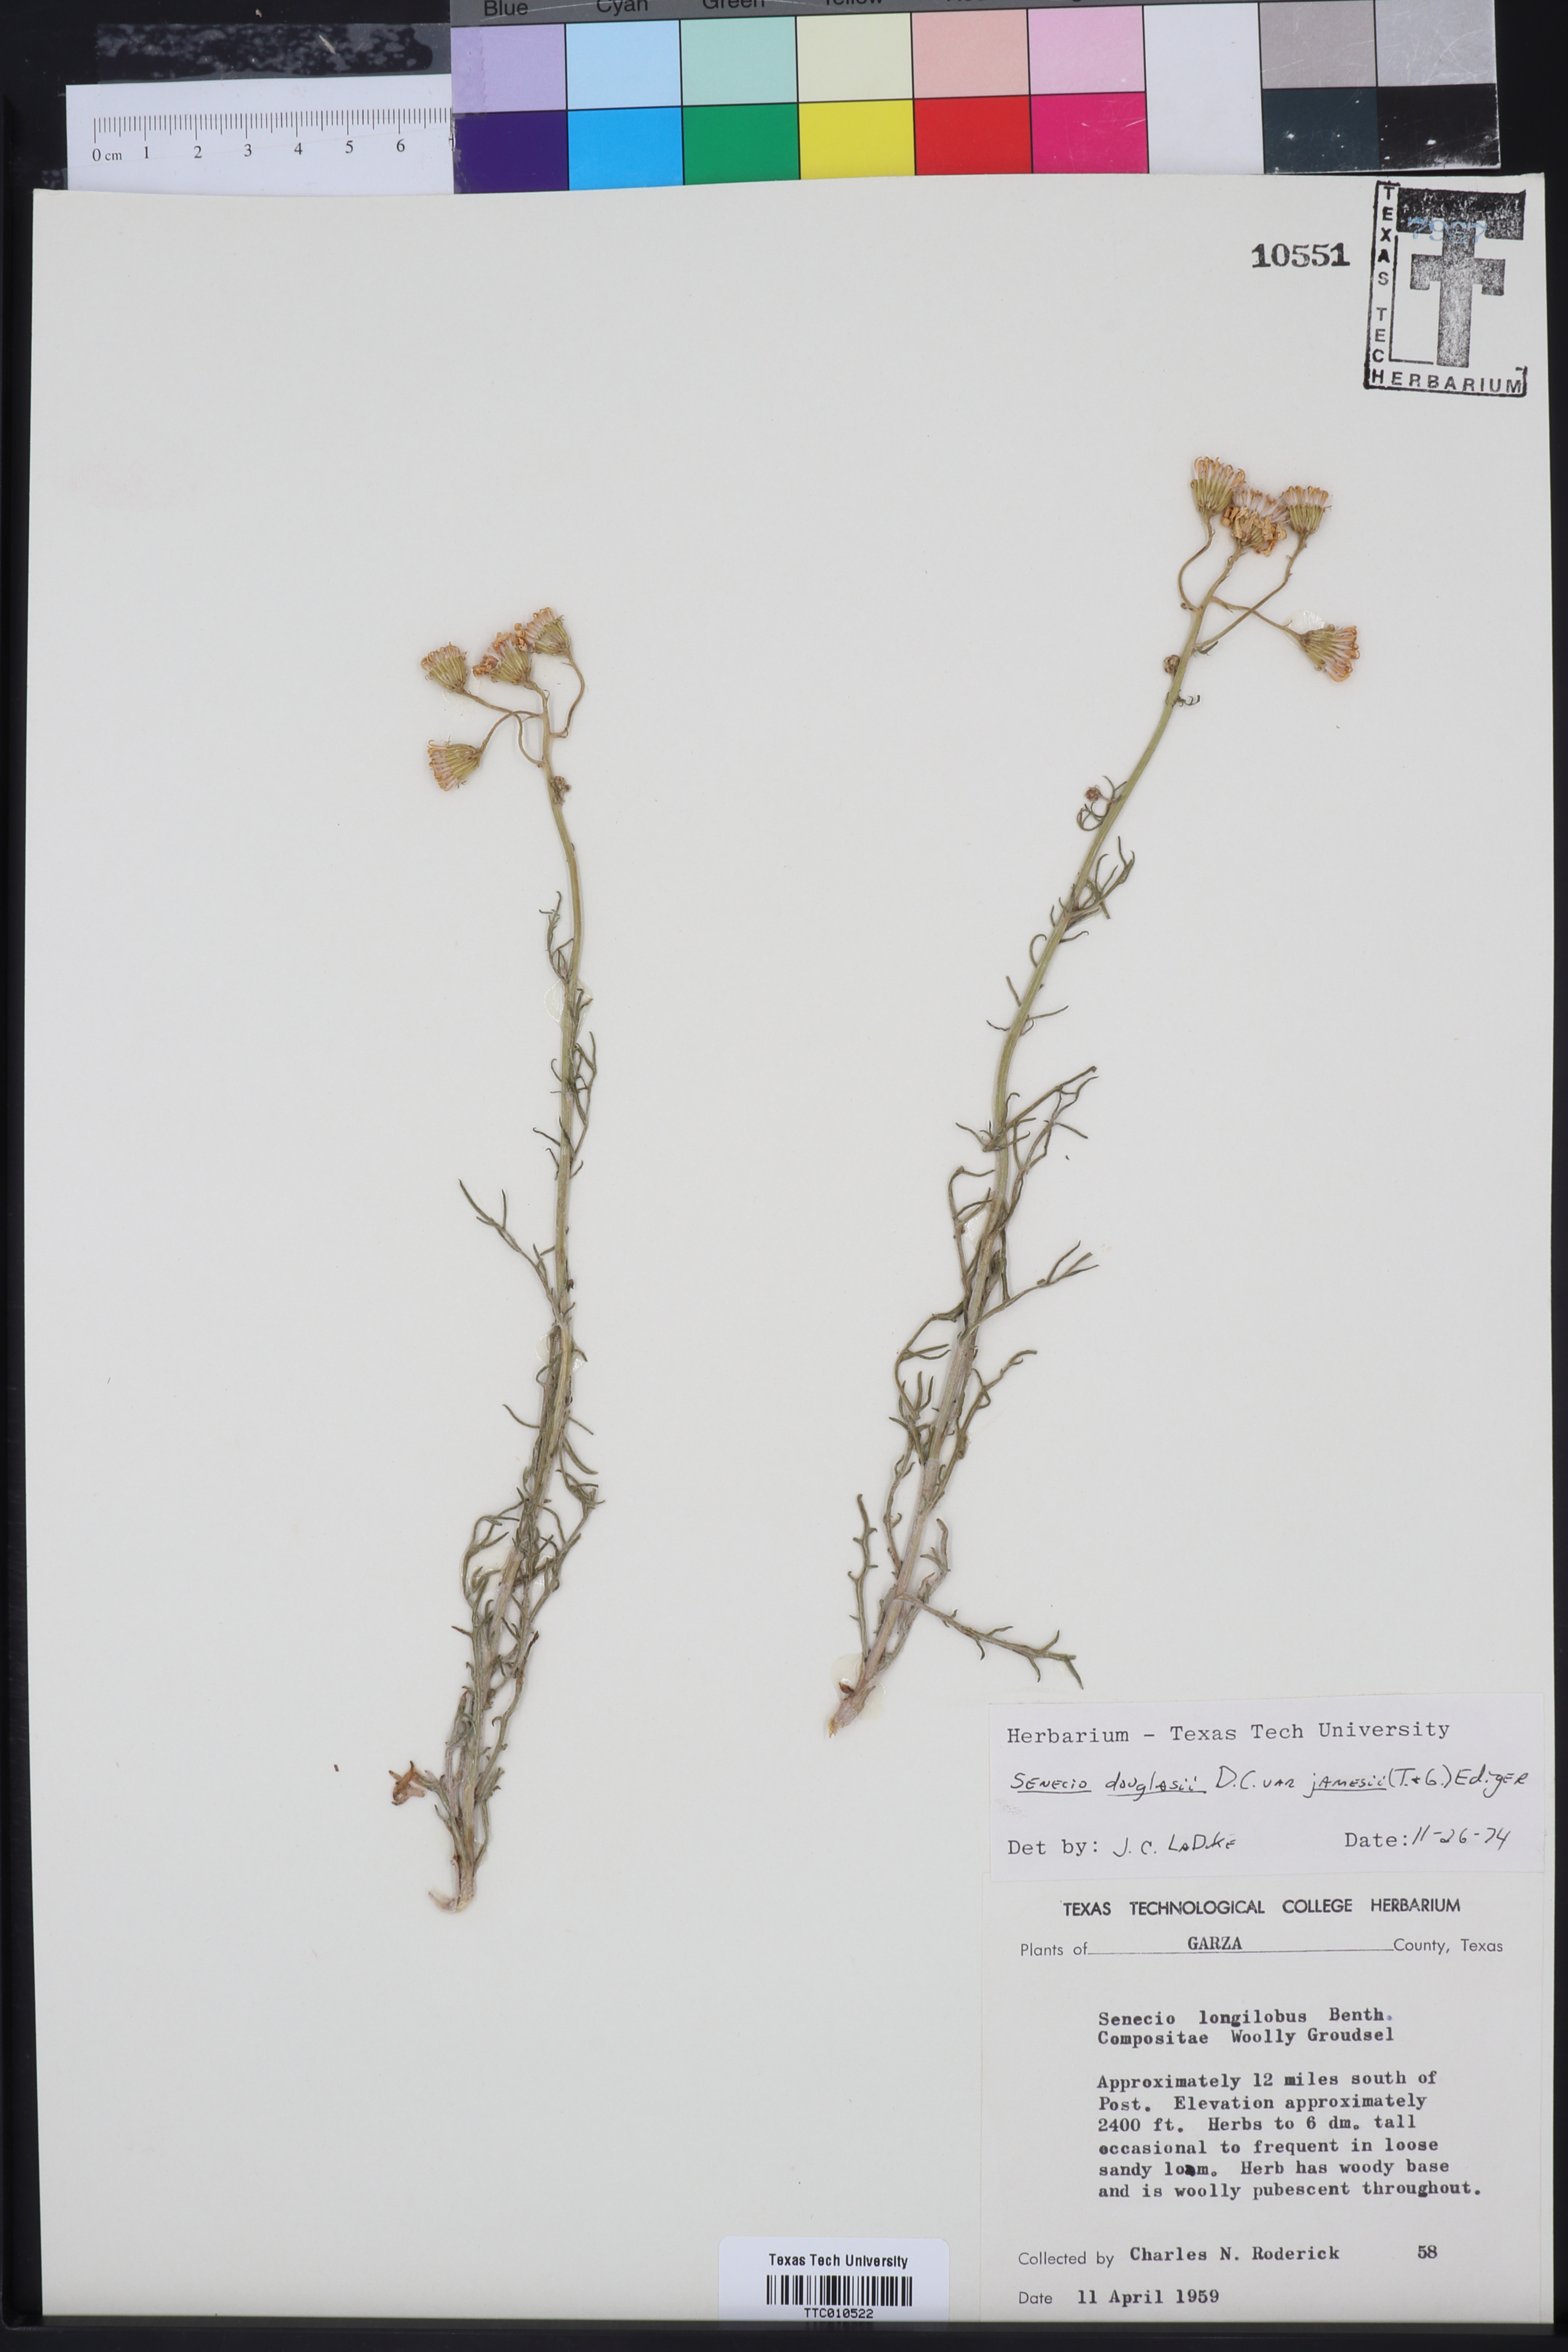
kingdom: Plantae
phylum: Tracheophyta
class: Magnoliopsida
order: Asterales
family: Asteraceae
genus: Senecio
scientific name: Senecio flaccidus
